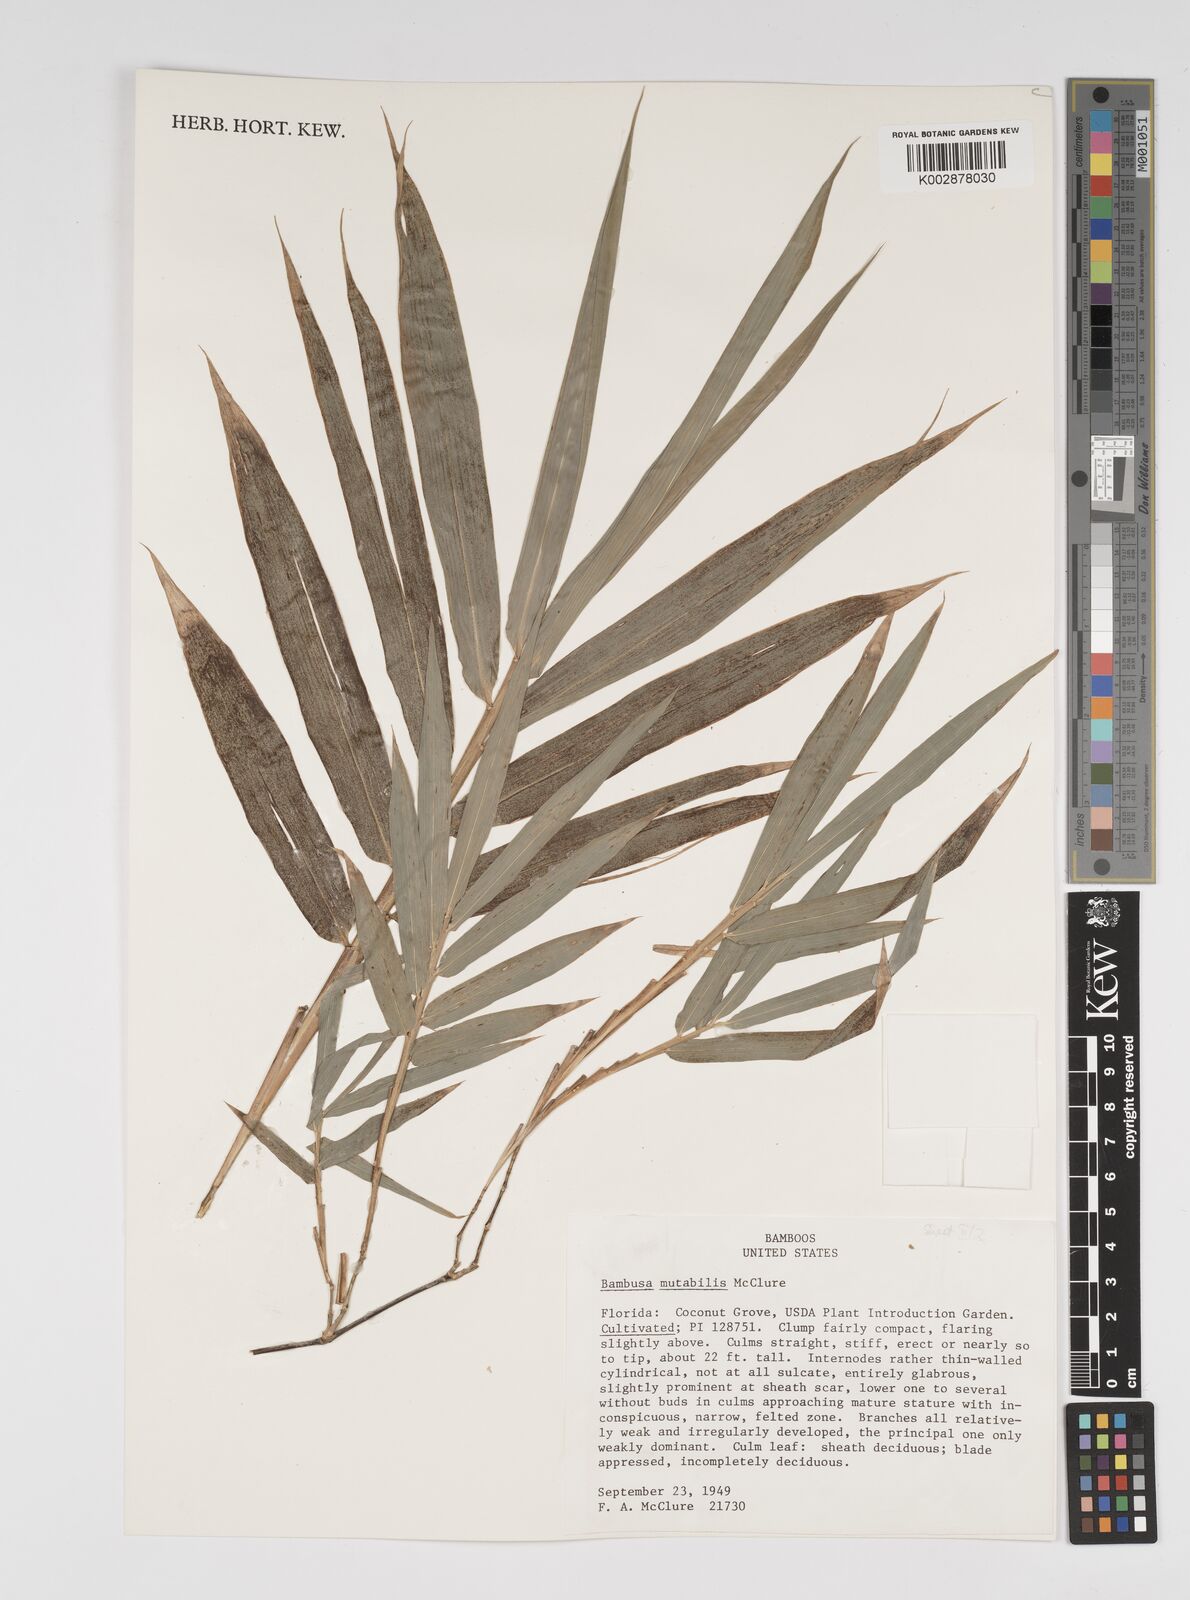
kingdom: Plantae
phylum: Tracheophyta
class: Liliopsida
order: Poales
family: Poaceae
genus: Bambusa
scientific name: Bambusa mutabilis
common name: Lesser yellow bamboo
